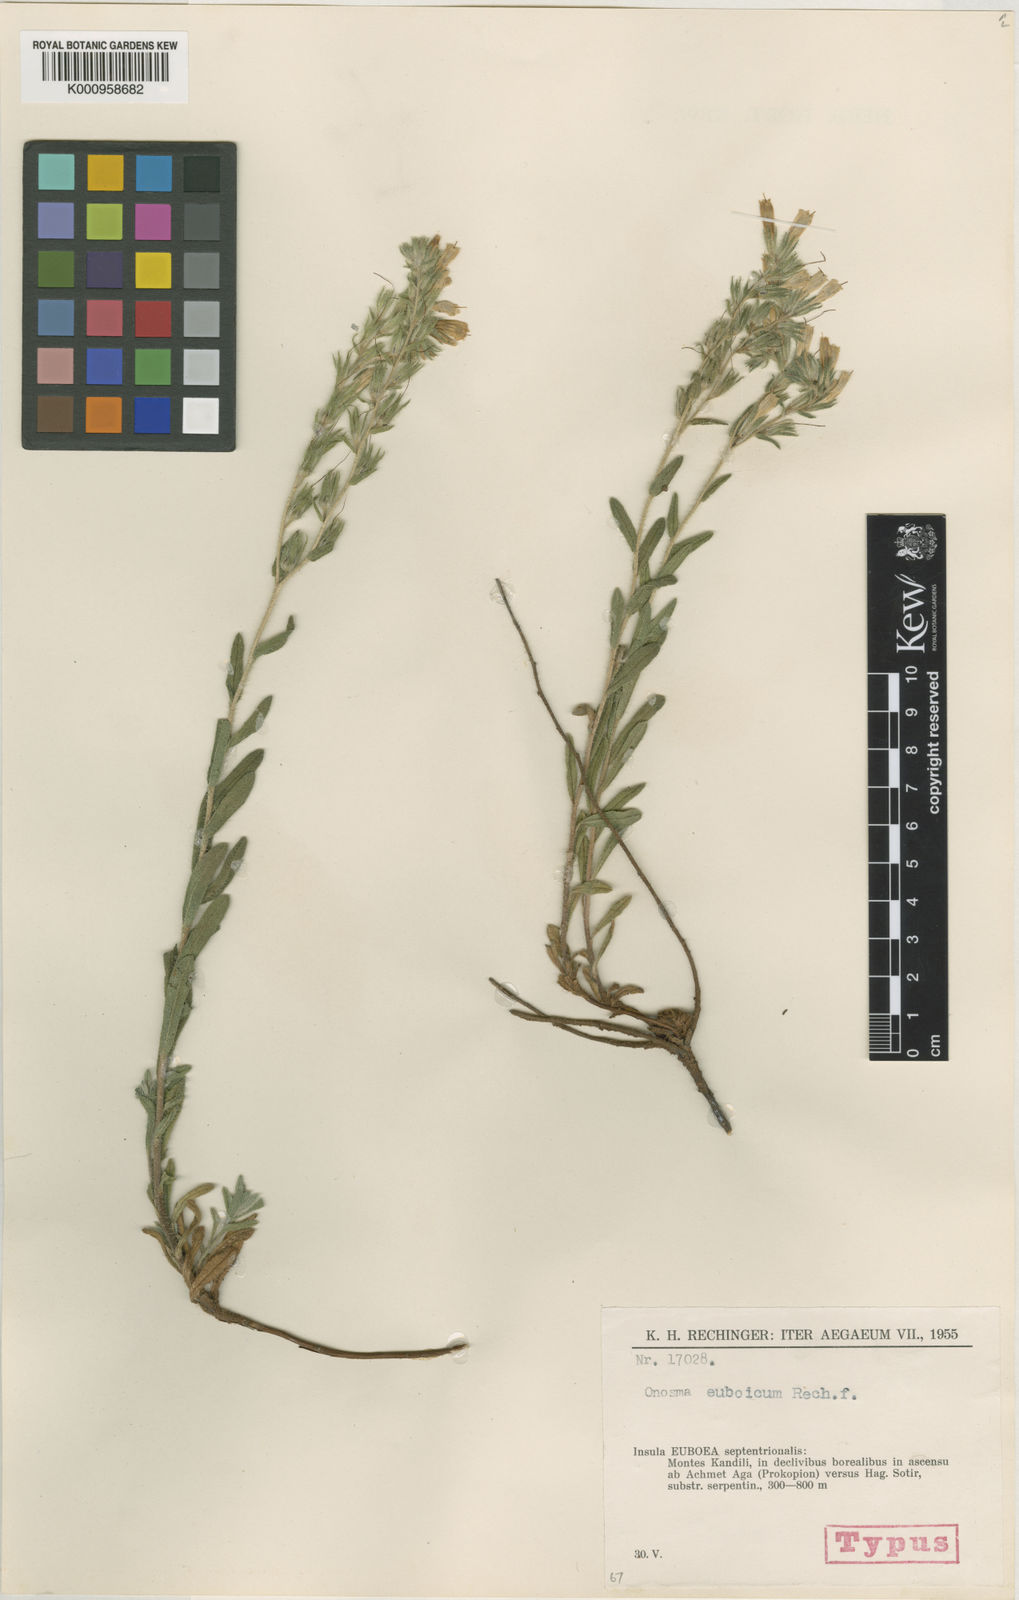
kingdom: Plantae
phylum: Tracheophyta
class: Magnoliopsida
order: Boraginales
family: Boraginaceae
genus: Onosma
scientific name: Onosma euboica
